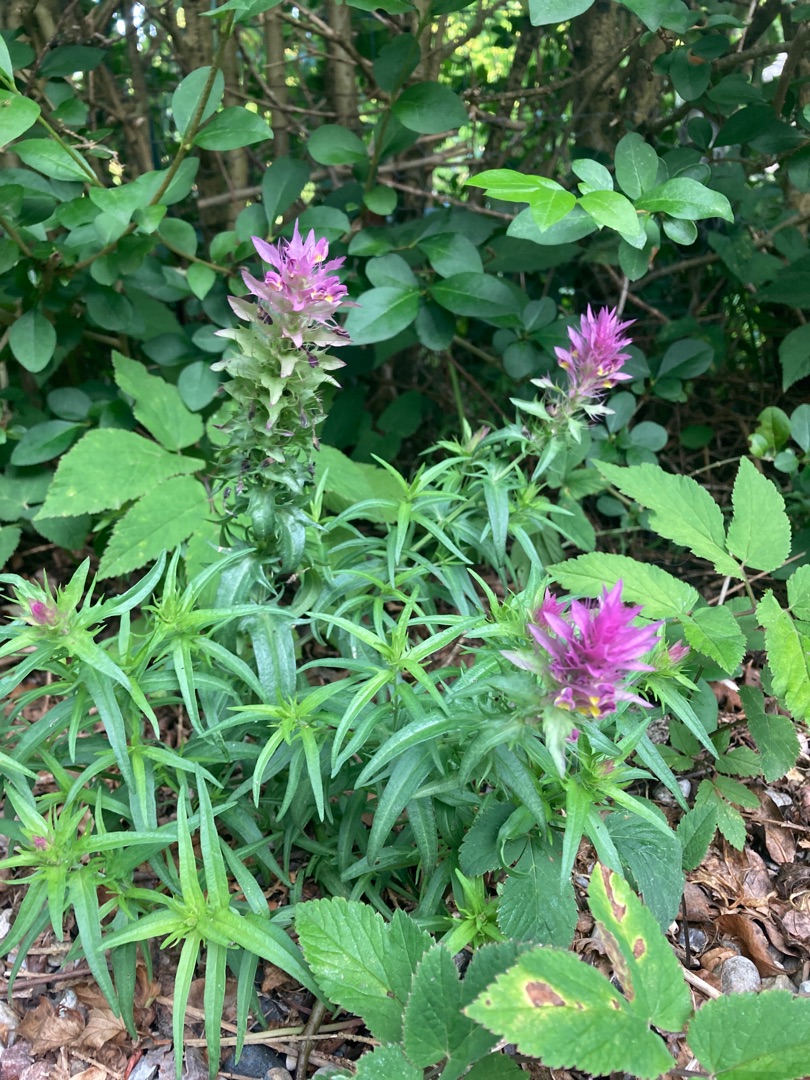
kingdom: Plantae
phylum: Tracheophyta
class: Magnoliopsida
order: Lamiales
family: Orobanchaceae
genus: Melampyrum
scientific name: Melampyrum arvense
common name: Ager-kohvede
